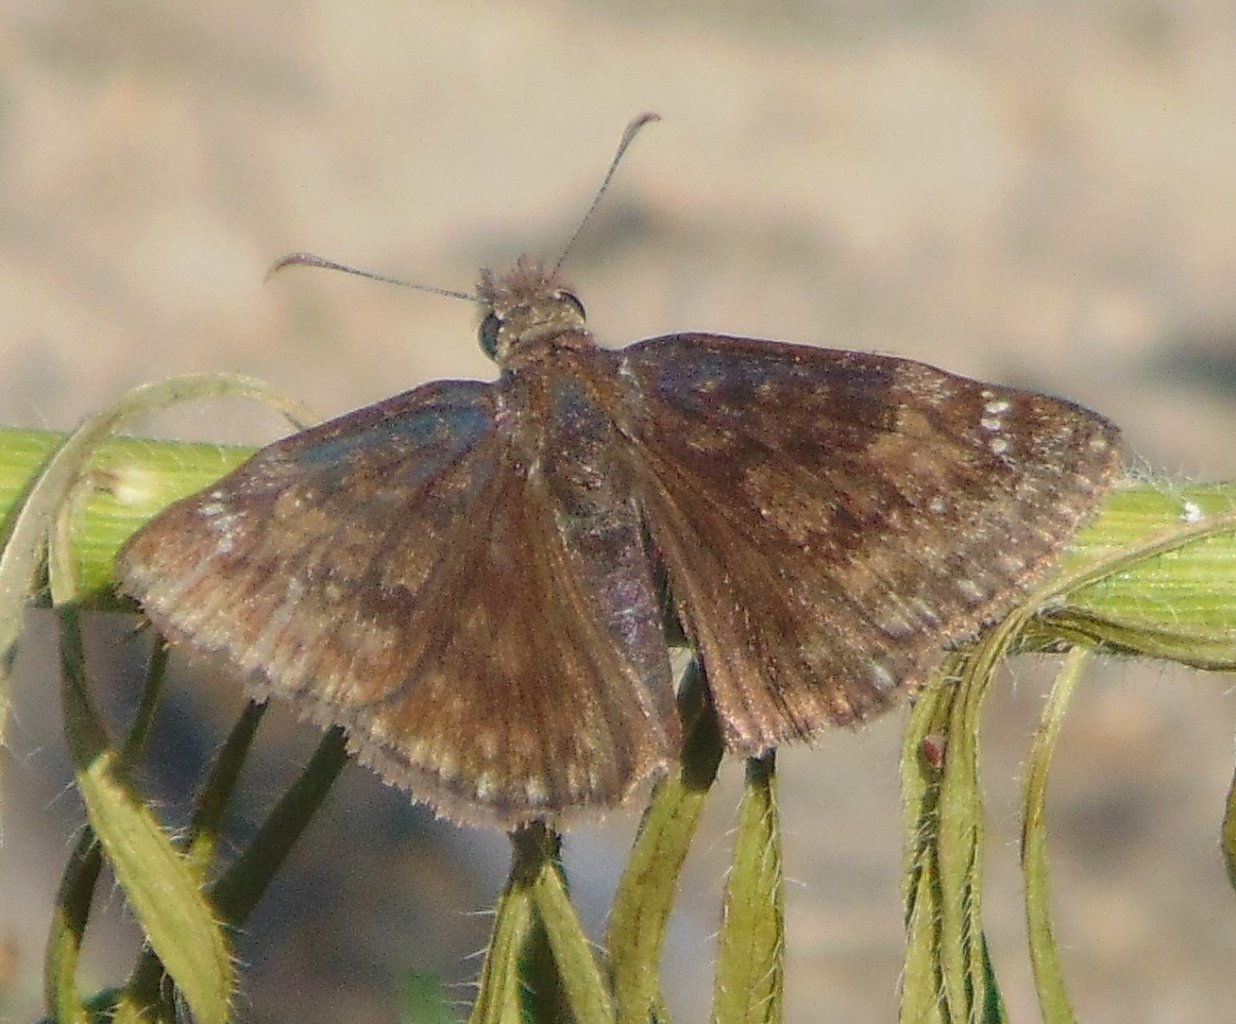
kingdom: Animalia
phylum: Arthropoda
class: Insecta
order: Lepidoptera
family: Hesperiidae
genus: Gesta
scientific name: Gesta
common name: Wild Indigo Duskywing
